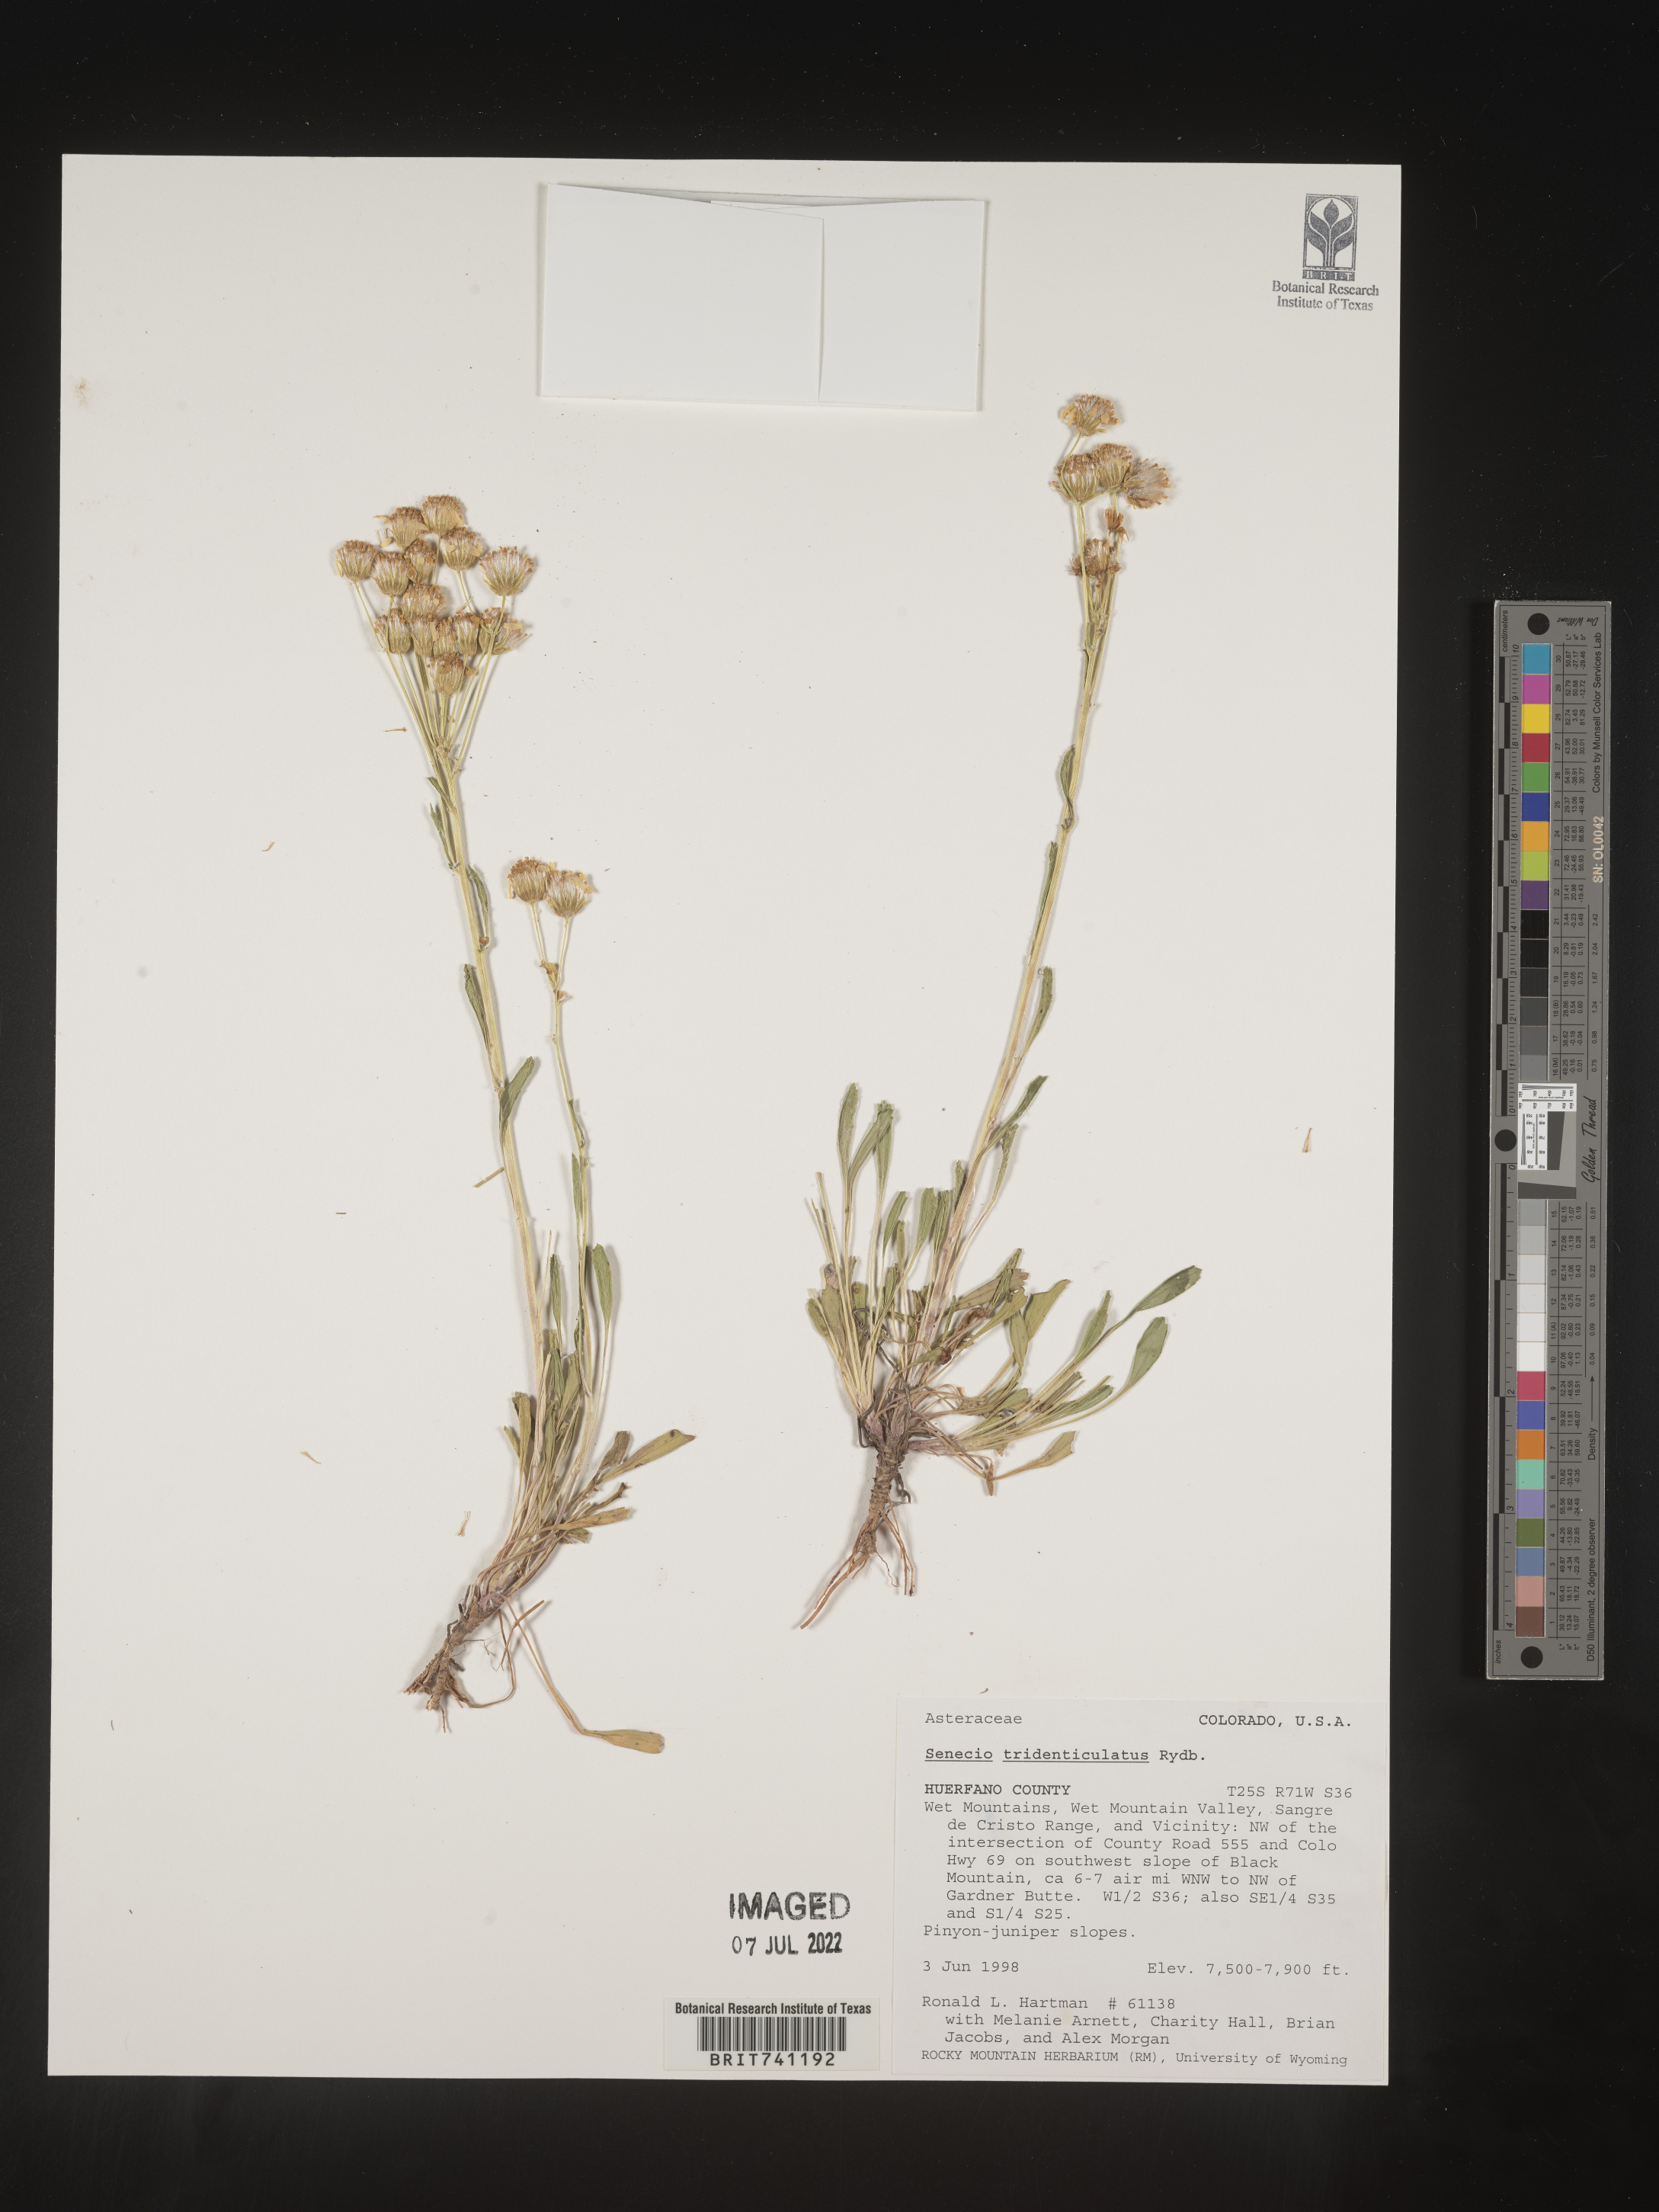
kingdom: Plantae
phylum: Tracheophyta
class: Magnoliopsida
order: Asterales
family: Asteraceae
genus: Packera
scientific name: Packera thurberi
